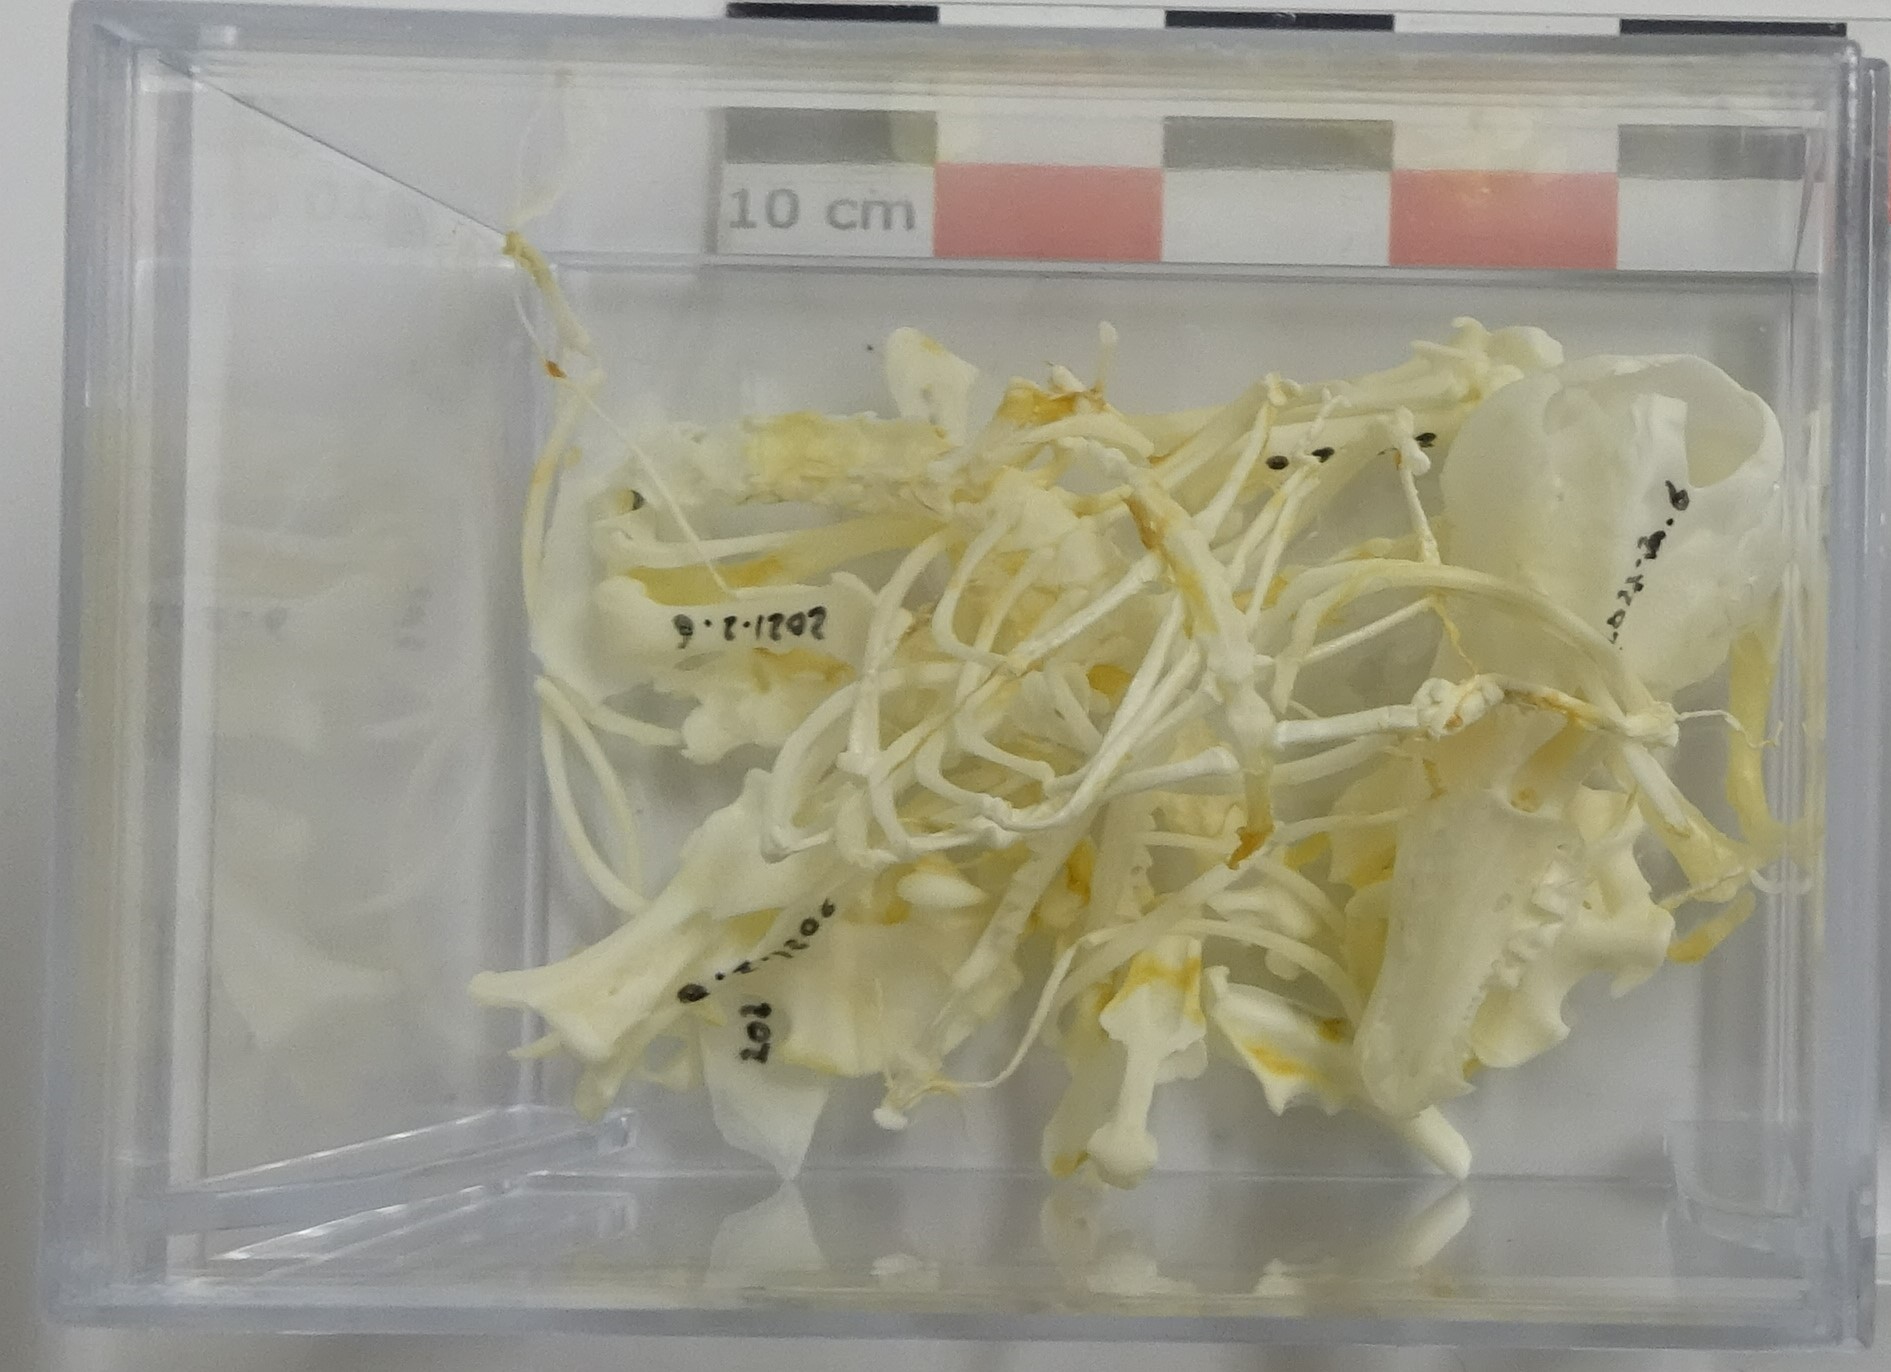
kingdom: Animalia
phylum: Chordata
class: Mammalia
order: Soricomorpha
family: Talpidae
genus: Talpa
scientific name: Talpa europaea
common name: European mole
